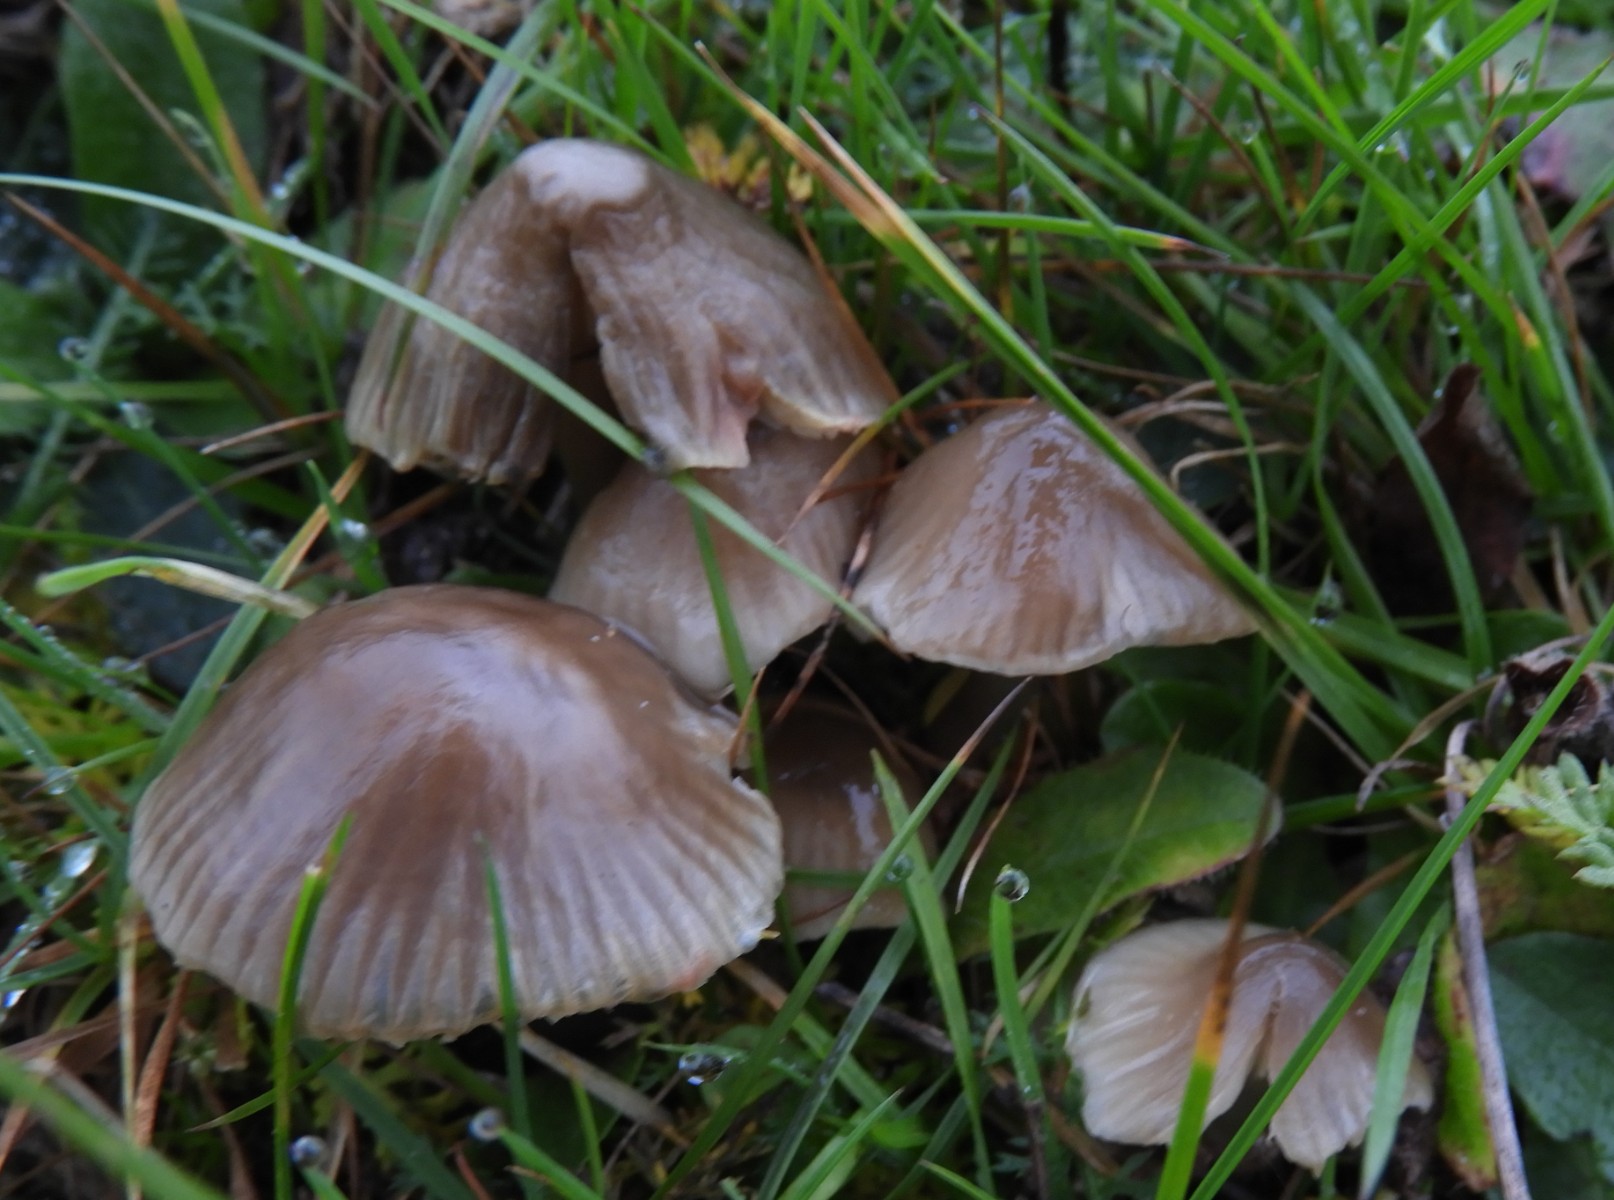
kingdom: Fungi
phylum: Basidiomycota
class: Agaricomycetes
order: Agaricales
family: Hygrophoraceae
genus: Gliophorus
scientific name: Gliophorus irrigatus
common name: slimet vokshat
